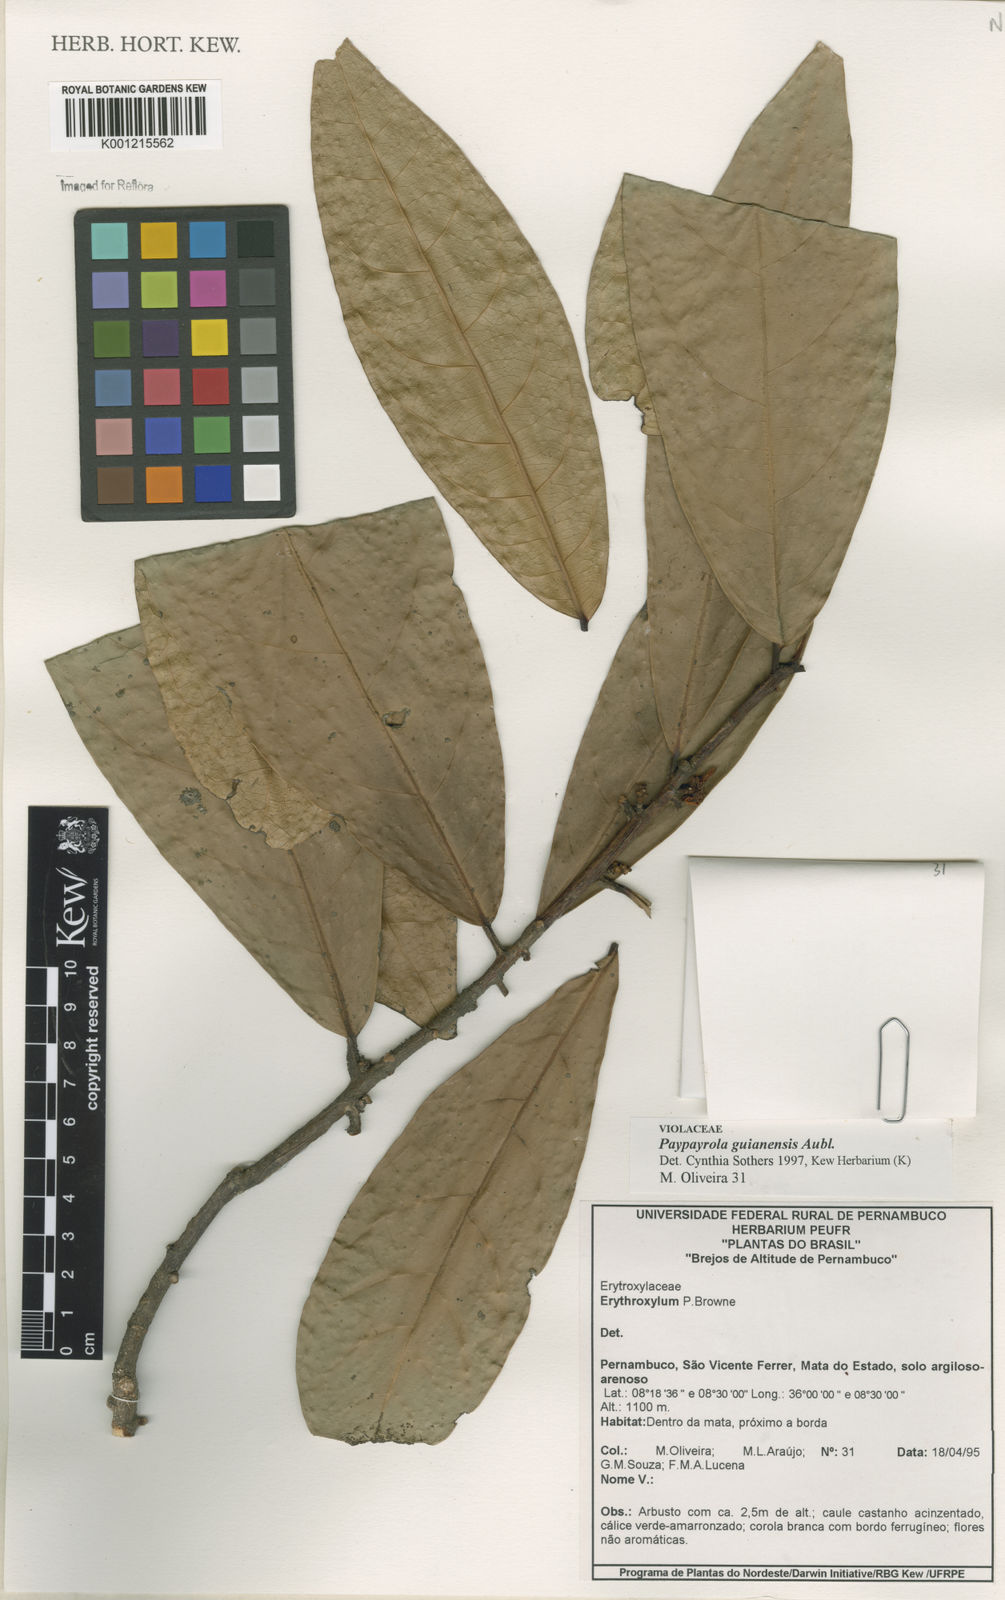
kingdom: Plantae
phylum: Tracheophyta
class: Magnoliopsida
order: Malpighiales
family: Violaceae
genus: Paypayrola
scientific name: Paypayrola guianensis
